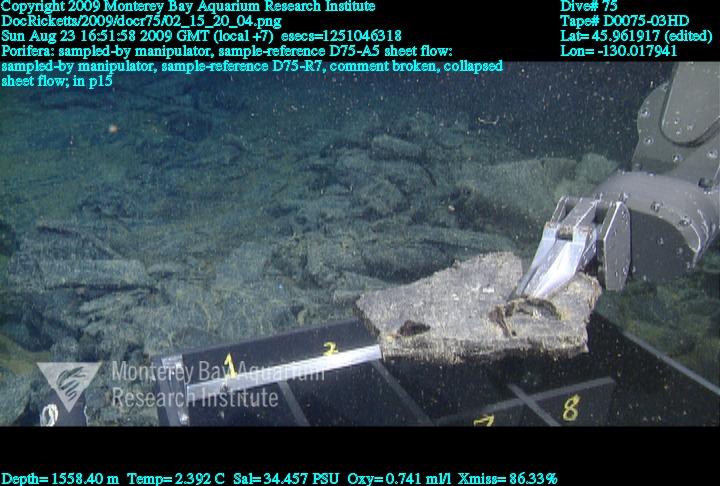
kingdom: Animalia
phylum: Porifera
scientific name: Porifera
